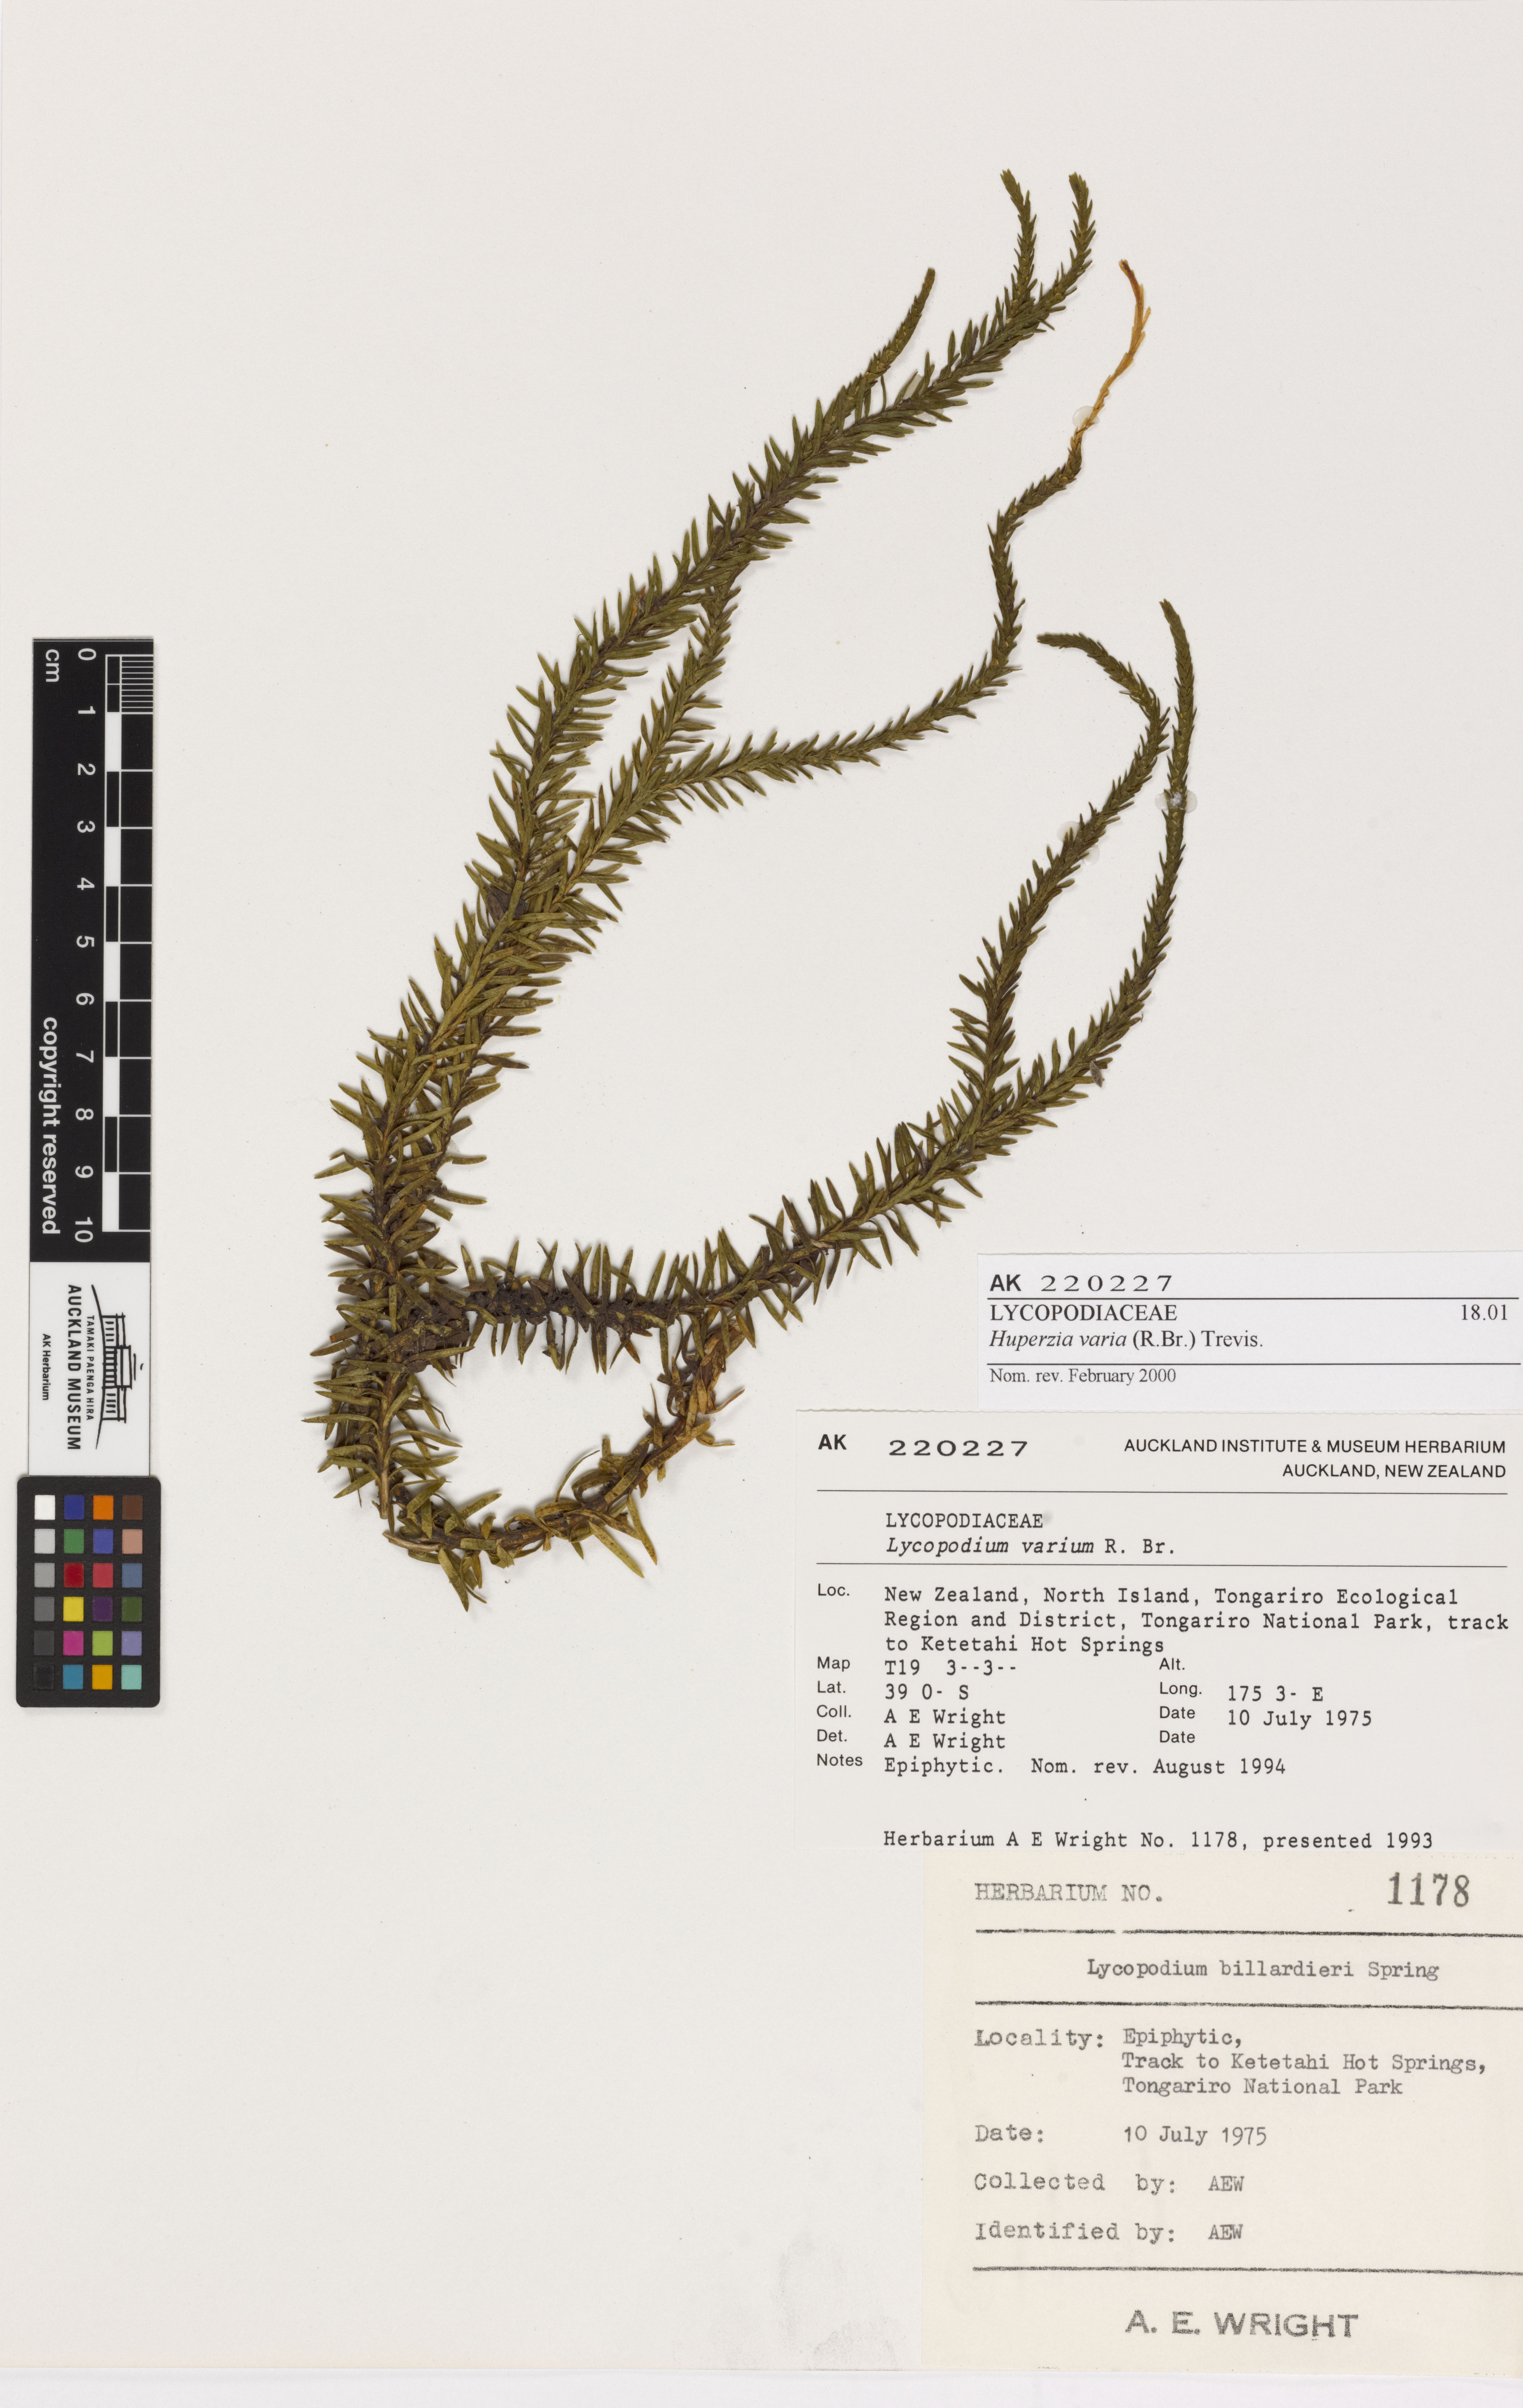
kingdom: Plantae
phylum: Tracheophyta
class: Lycopodiopsida
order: Lycopodiales
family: Lycopodiaceae
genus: Phlegmariurus
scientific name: Phlegmariurus varius
